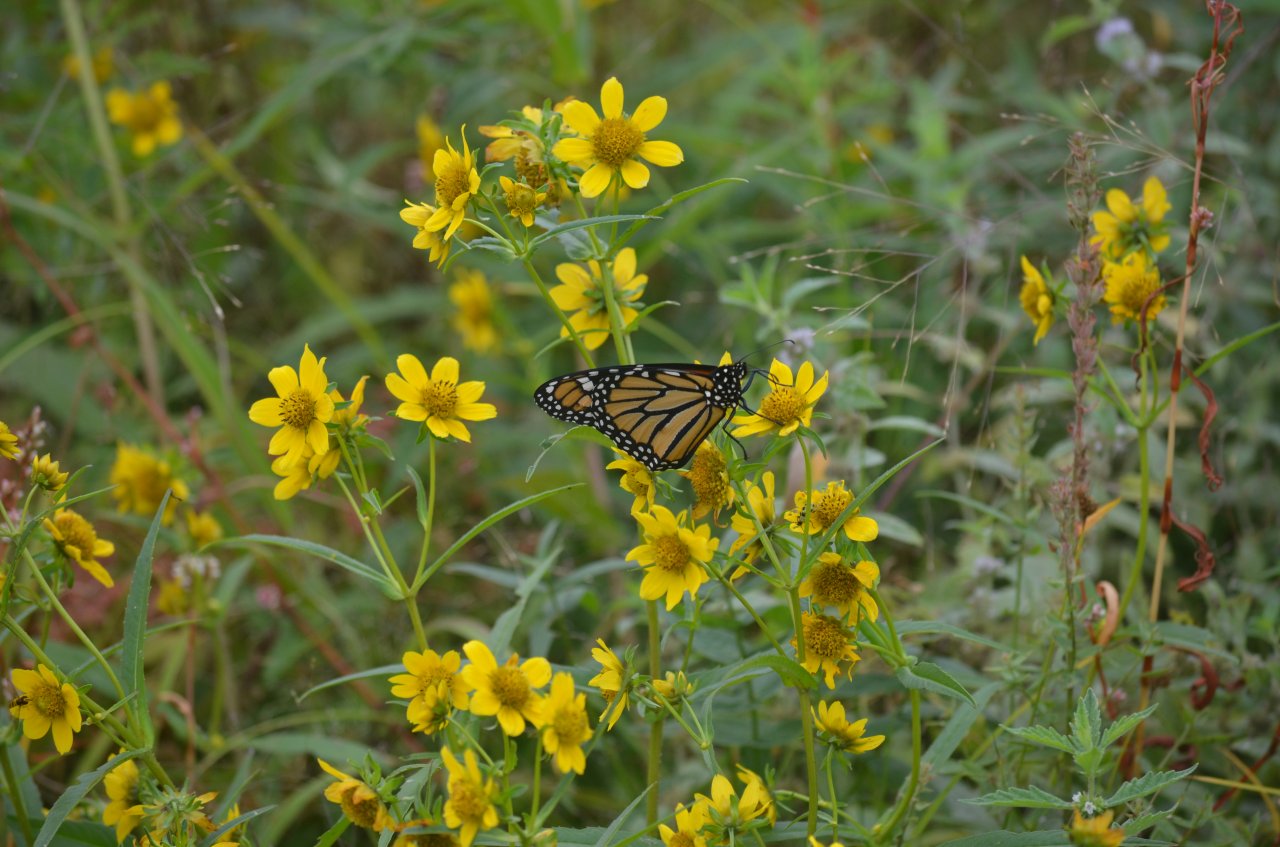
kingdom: Animalia
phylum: Arthropoda
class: Insecta
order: Lepidoptera
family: Nymphalidae
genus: Danaus
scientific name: Danaus plexippus
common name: Monarch
